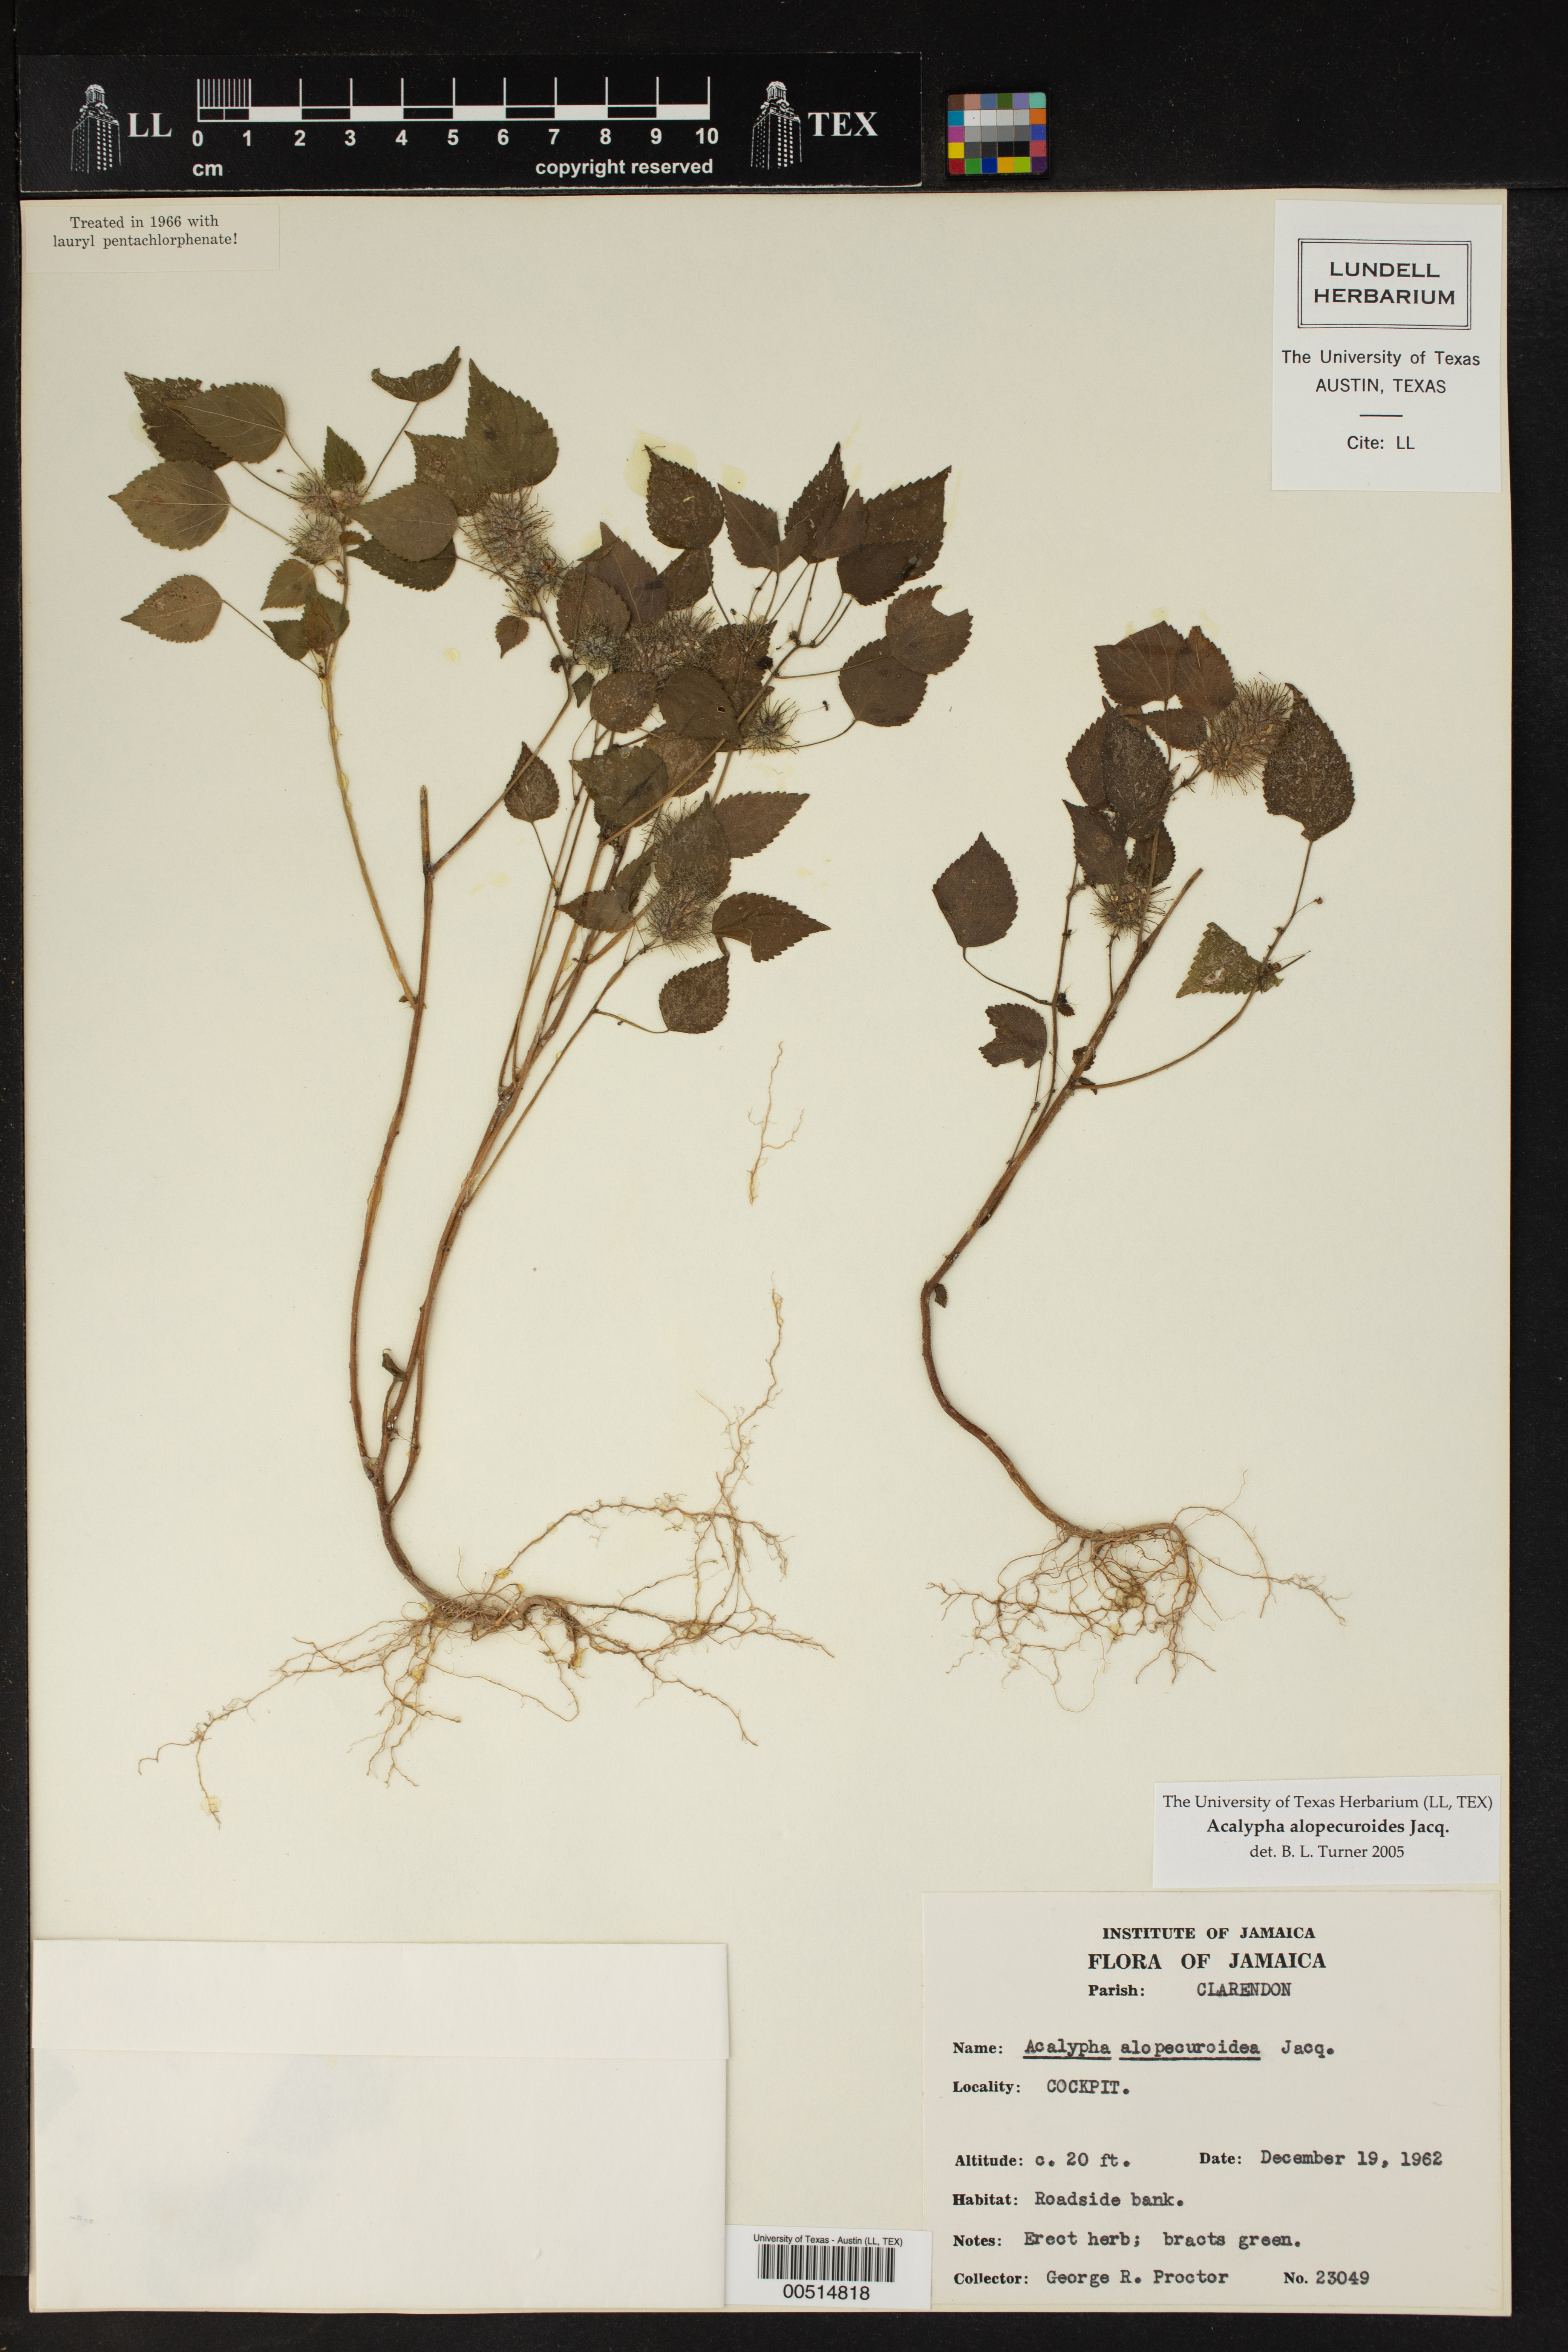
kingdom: Plantae
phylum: Tracheophyta
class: Magnoliopsida
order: Malpighiales
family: Euphorbiaceae
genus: Acalypha
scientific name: Acalypha alopecuroidea
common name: Foxtail copperleaf
